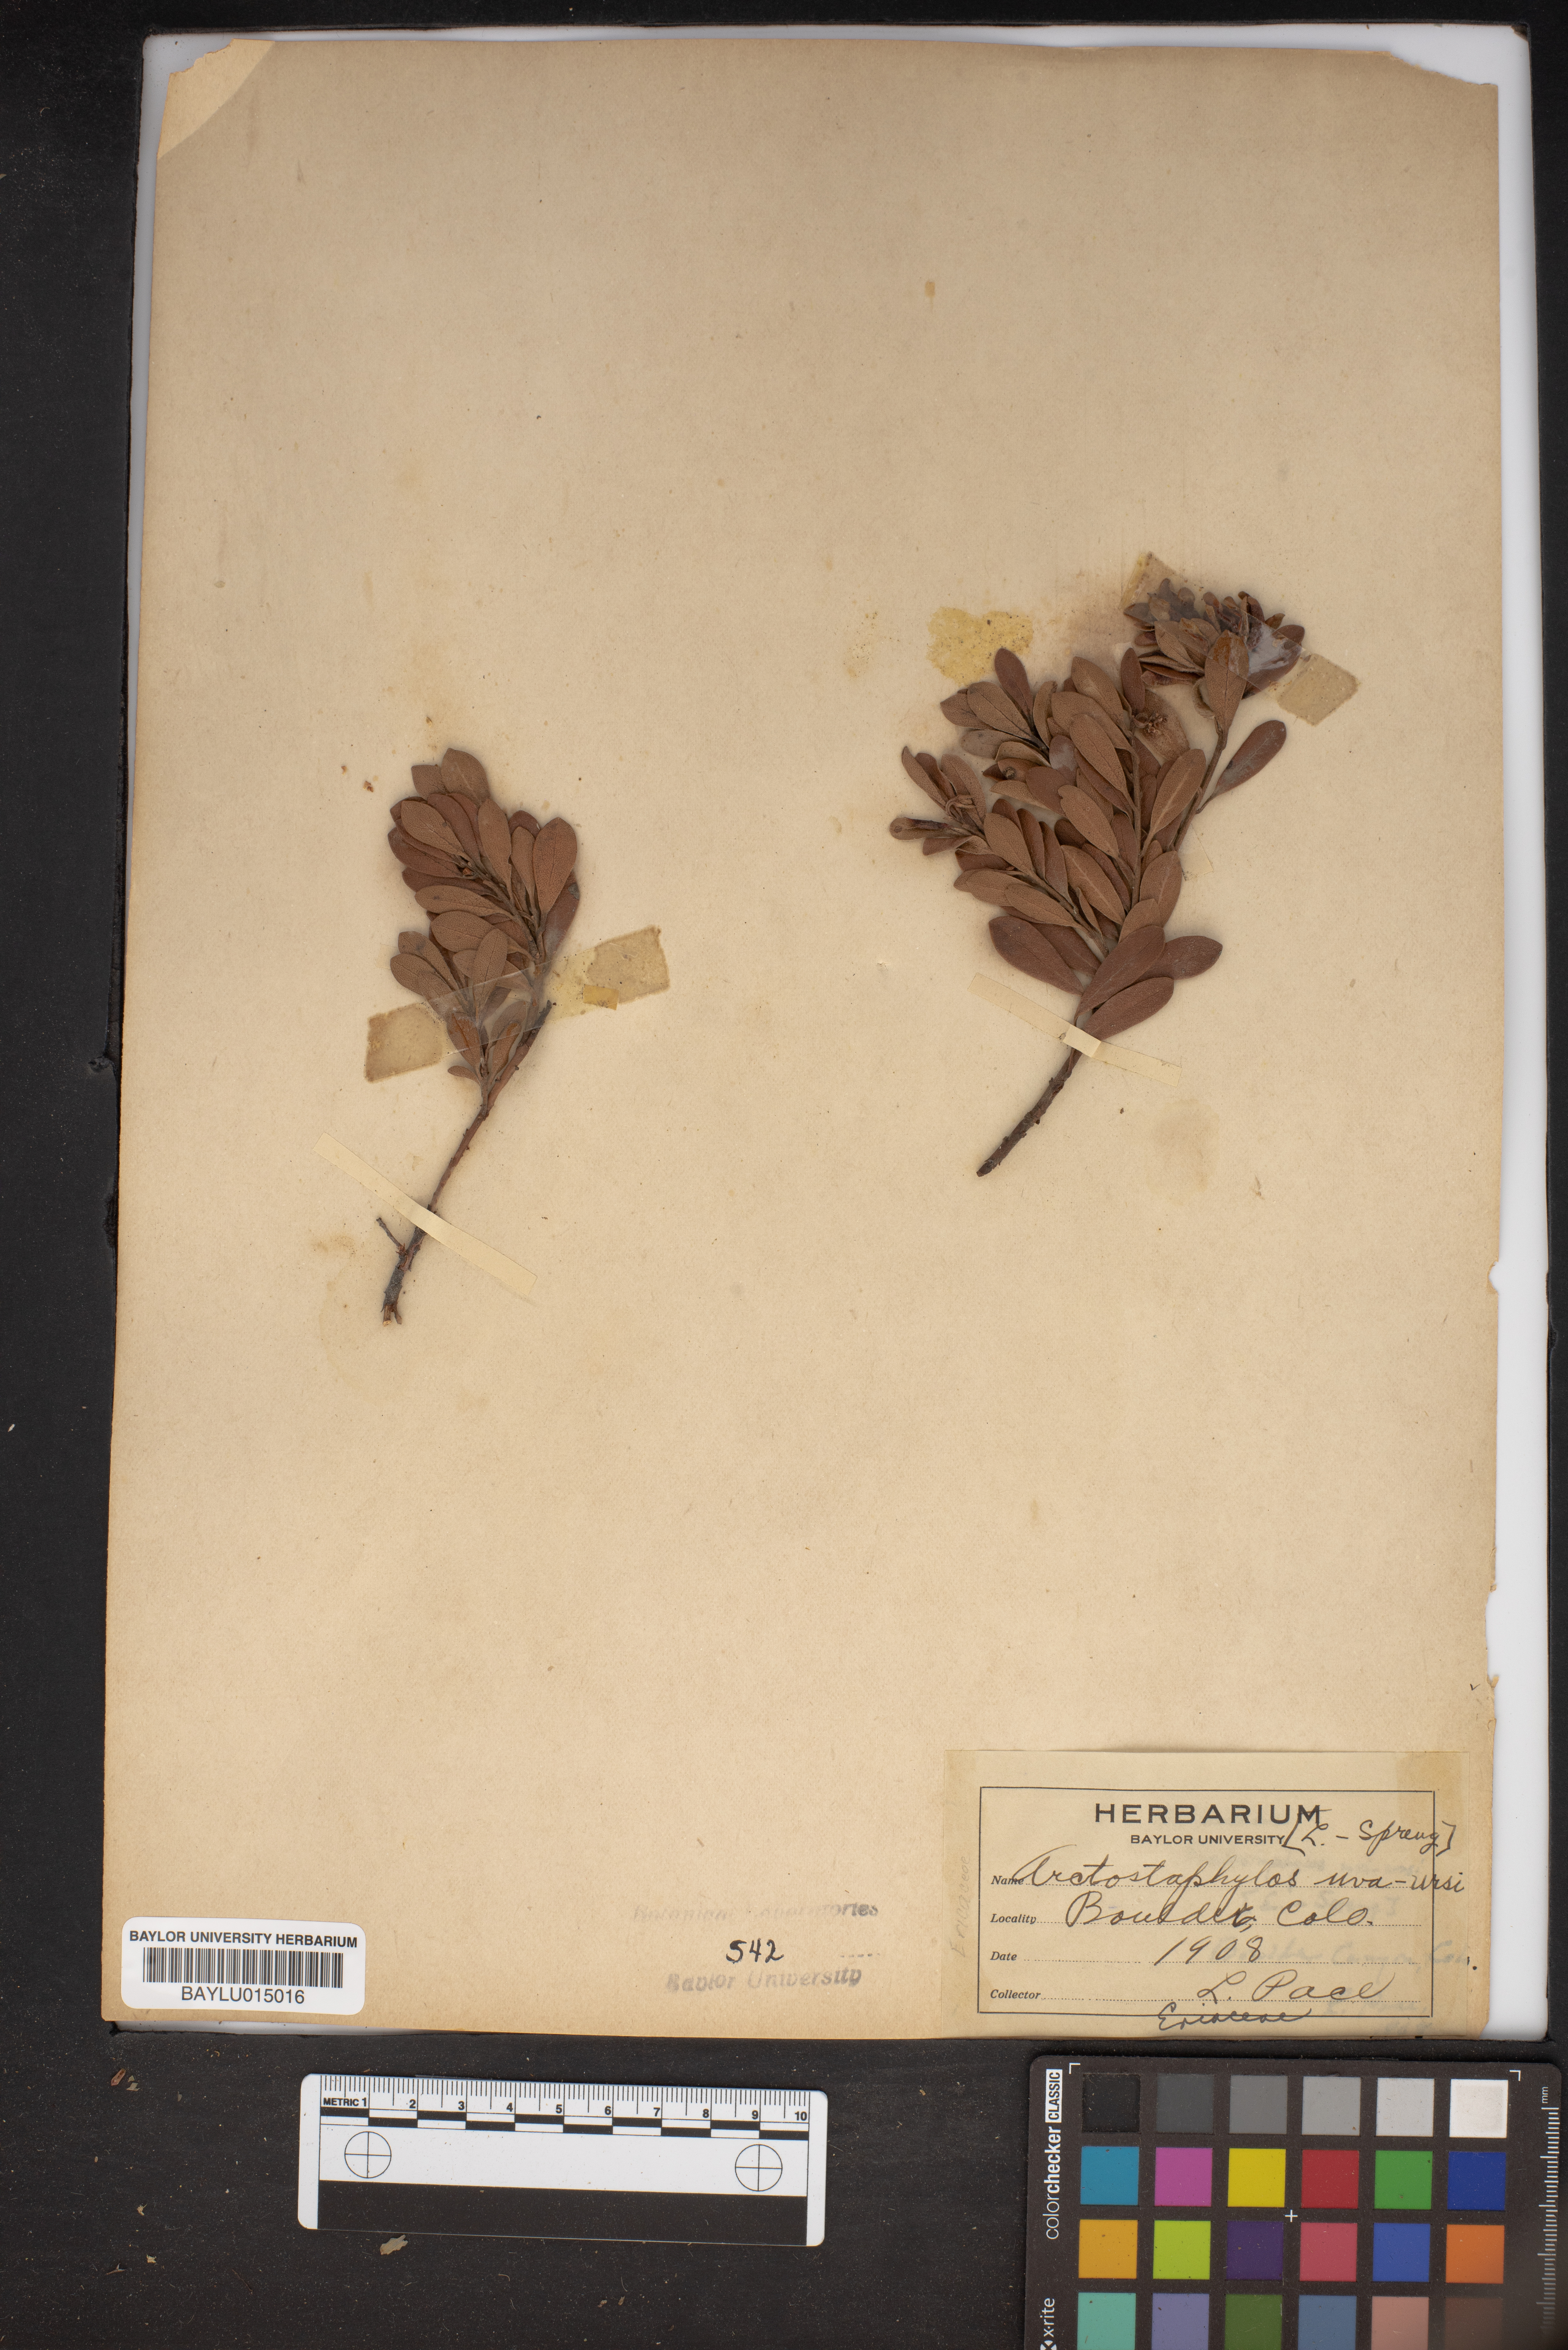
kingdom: Plantae
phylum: Tracheophyta
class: Magnoliopsida
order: Ericales
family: Ericaceae
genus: Arctostaphylos
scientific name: Arctostaphylos uva-ursi
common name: Bearberry
